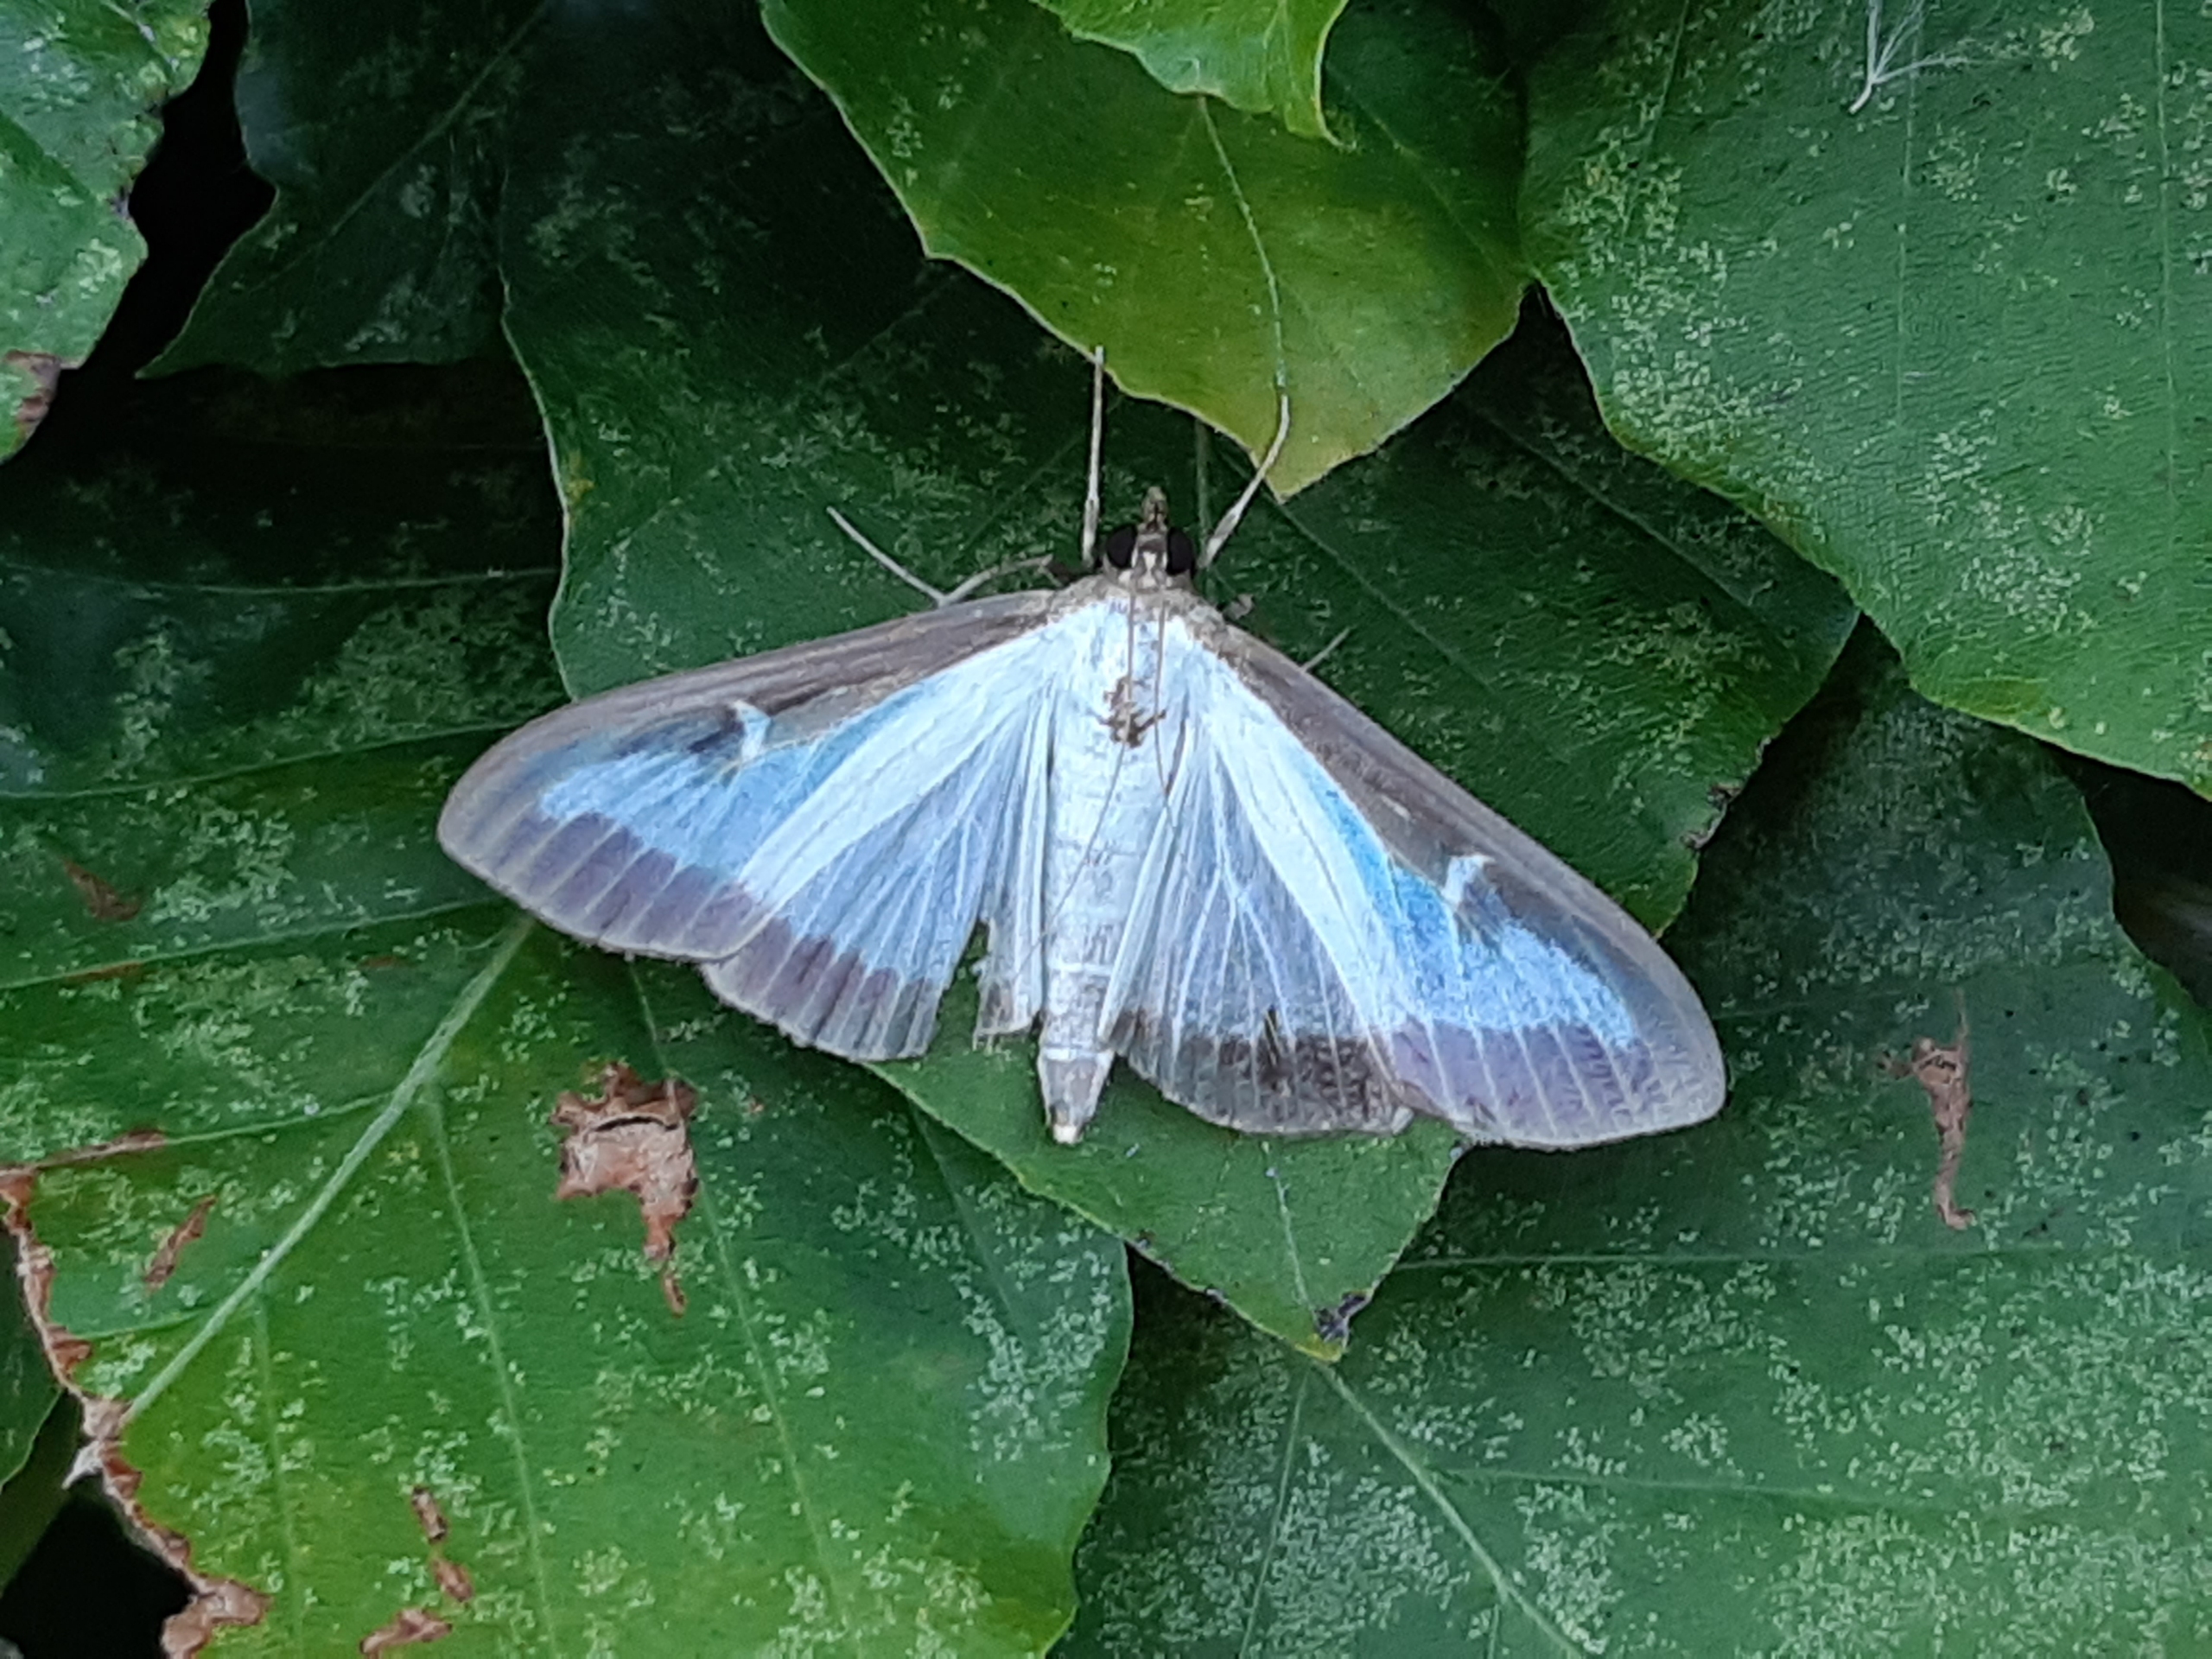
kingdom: Animalia
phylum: Arthropoda
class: Insecta
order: Lepidoptera
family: Crambidae
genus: Cydalima
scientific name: Cydalima perspectalis
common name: Buksbomhalvmøl
